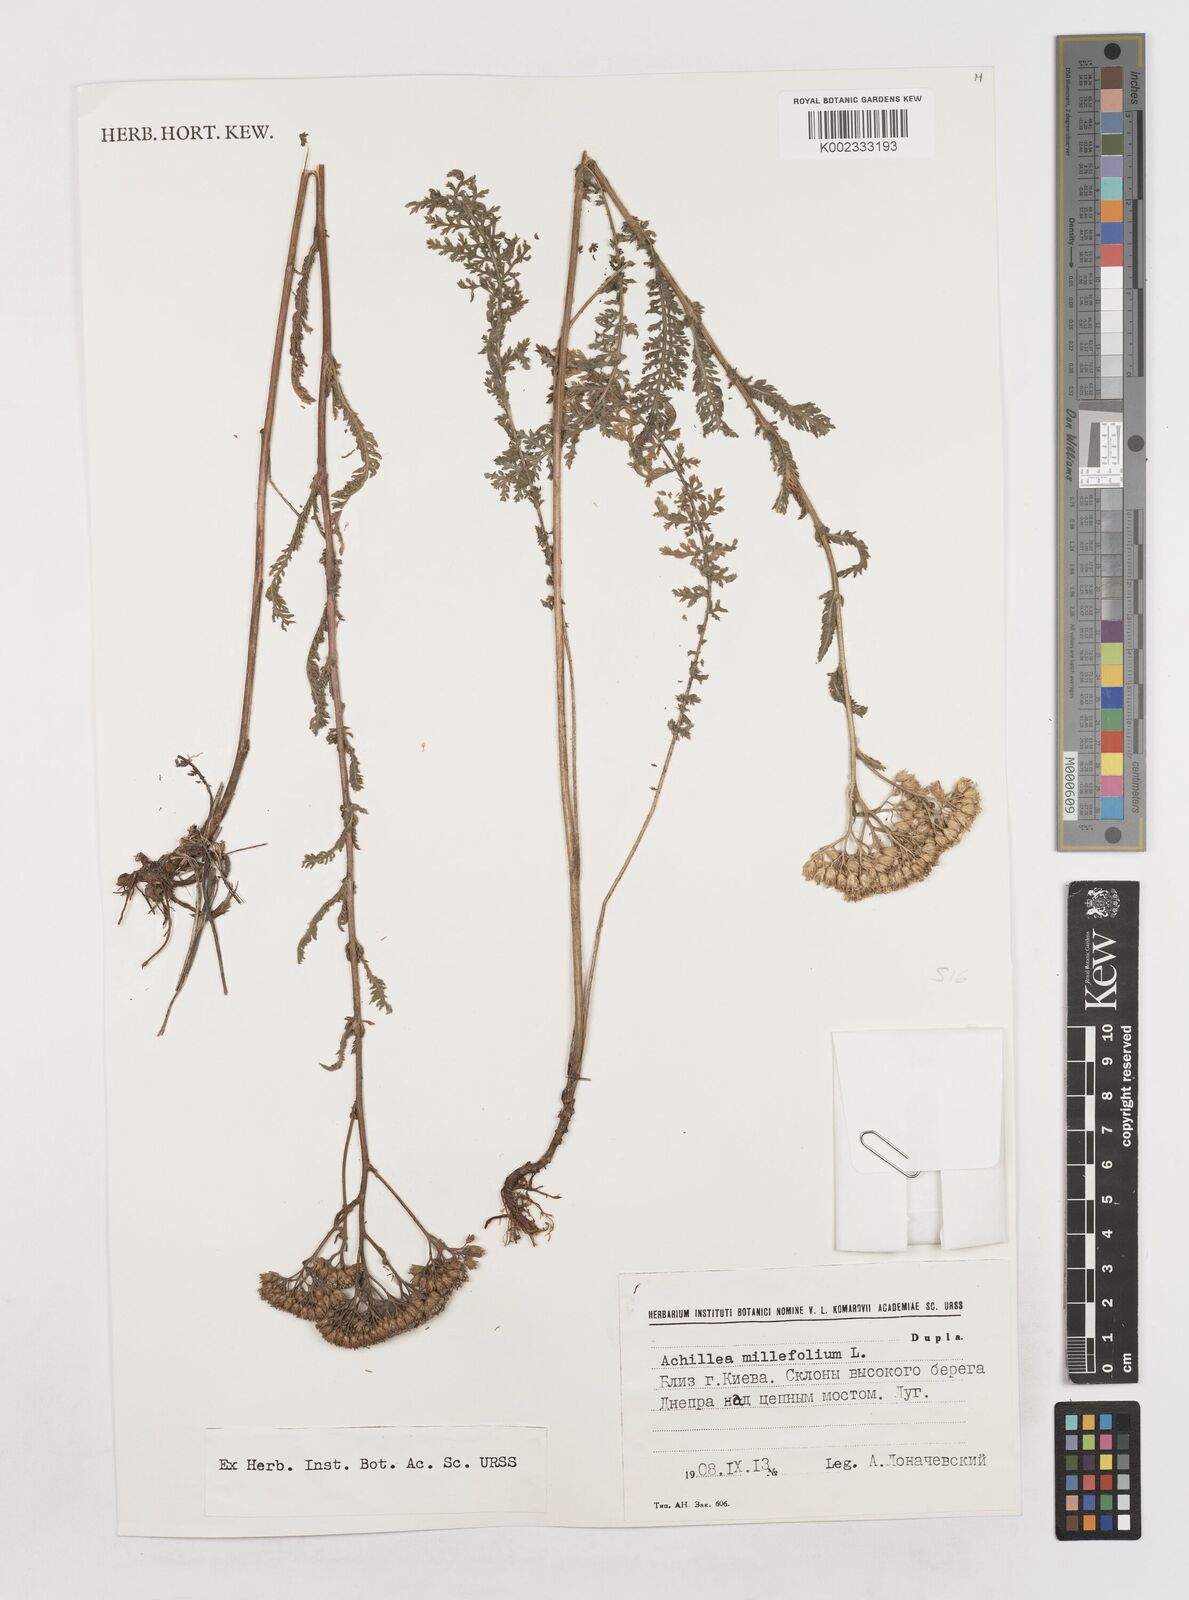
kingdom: Plantae
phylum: Tracheophyta
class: Magnoliopsida
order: Asterales
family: Asteraceae
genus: Achillea
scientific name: Achillea millefolium
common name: Yarrow
